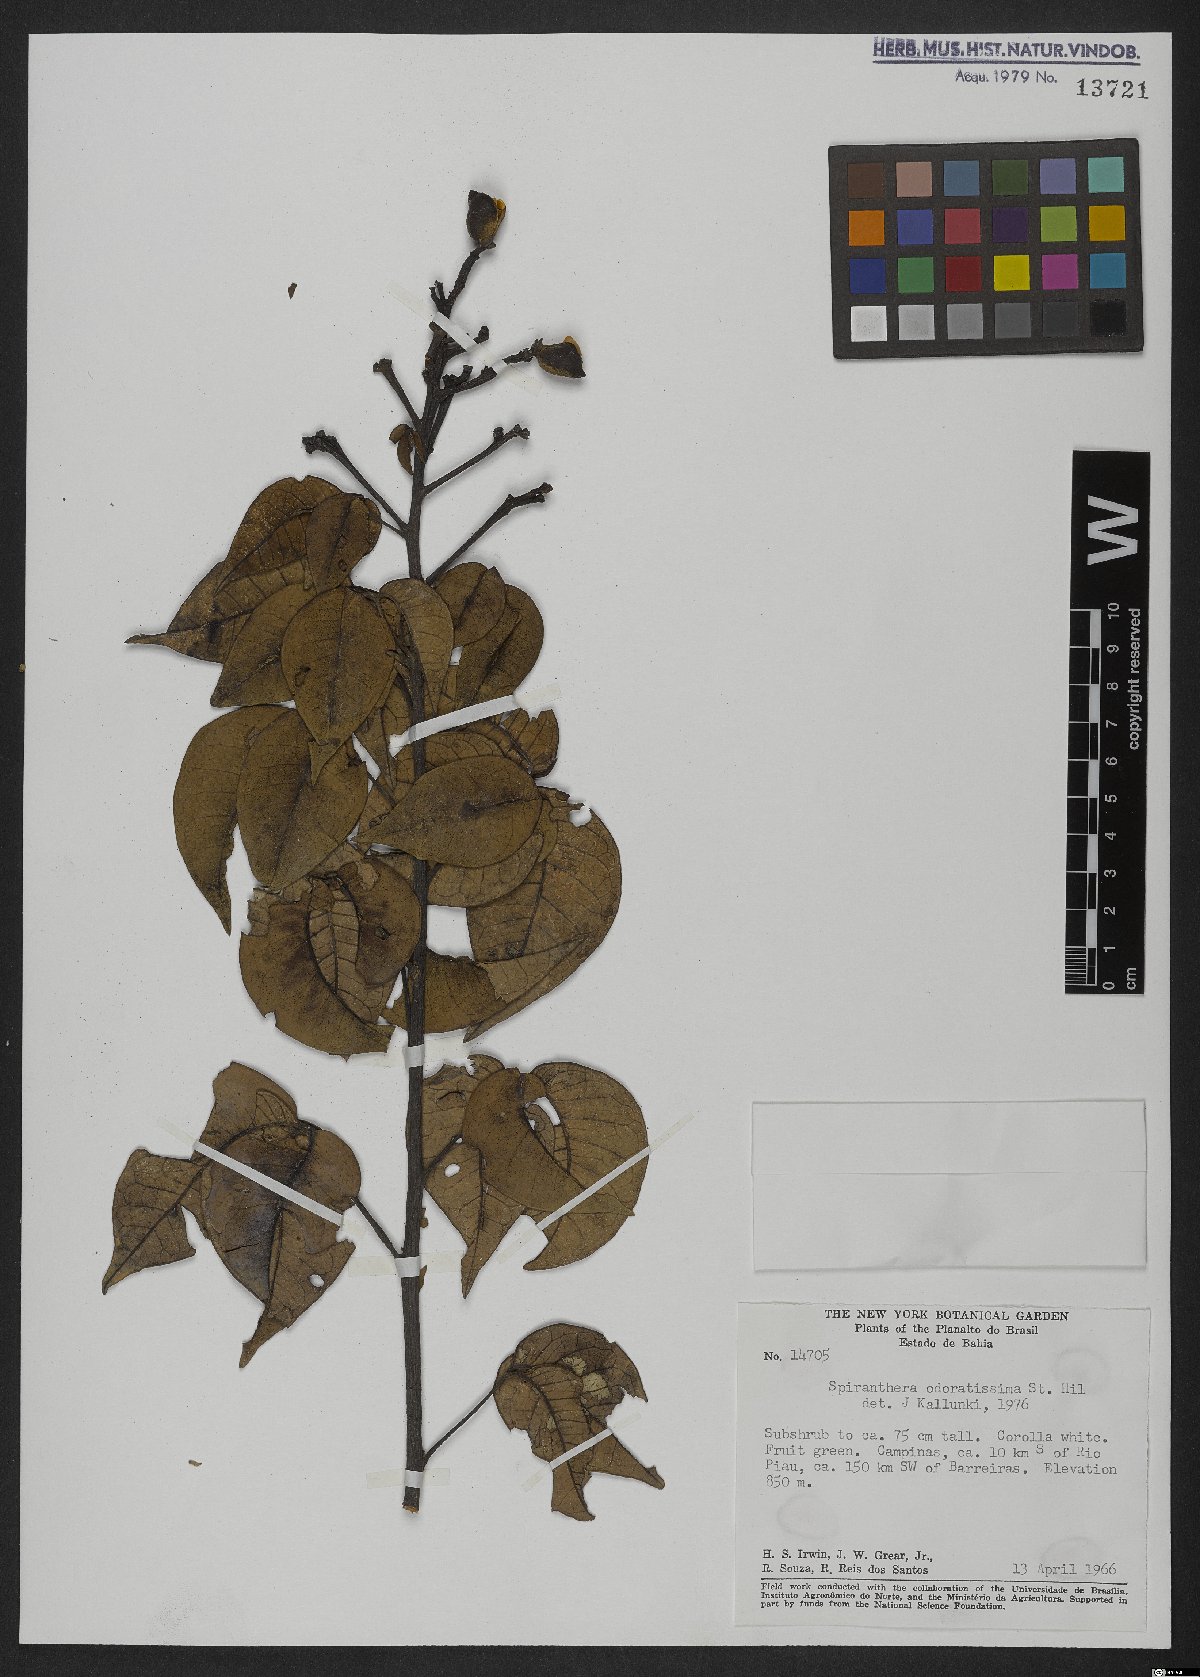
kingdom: Plantae
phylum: Tracheophyta
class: Magnoliopsida
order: Sapindales
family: Rutaceae
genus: Spiranthera
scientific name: Spiranthera odoratissima
